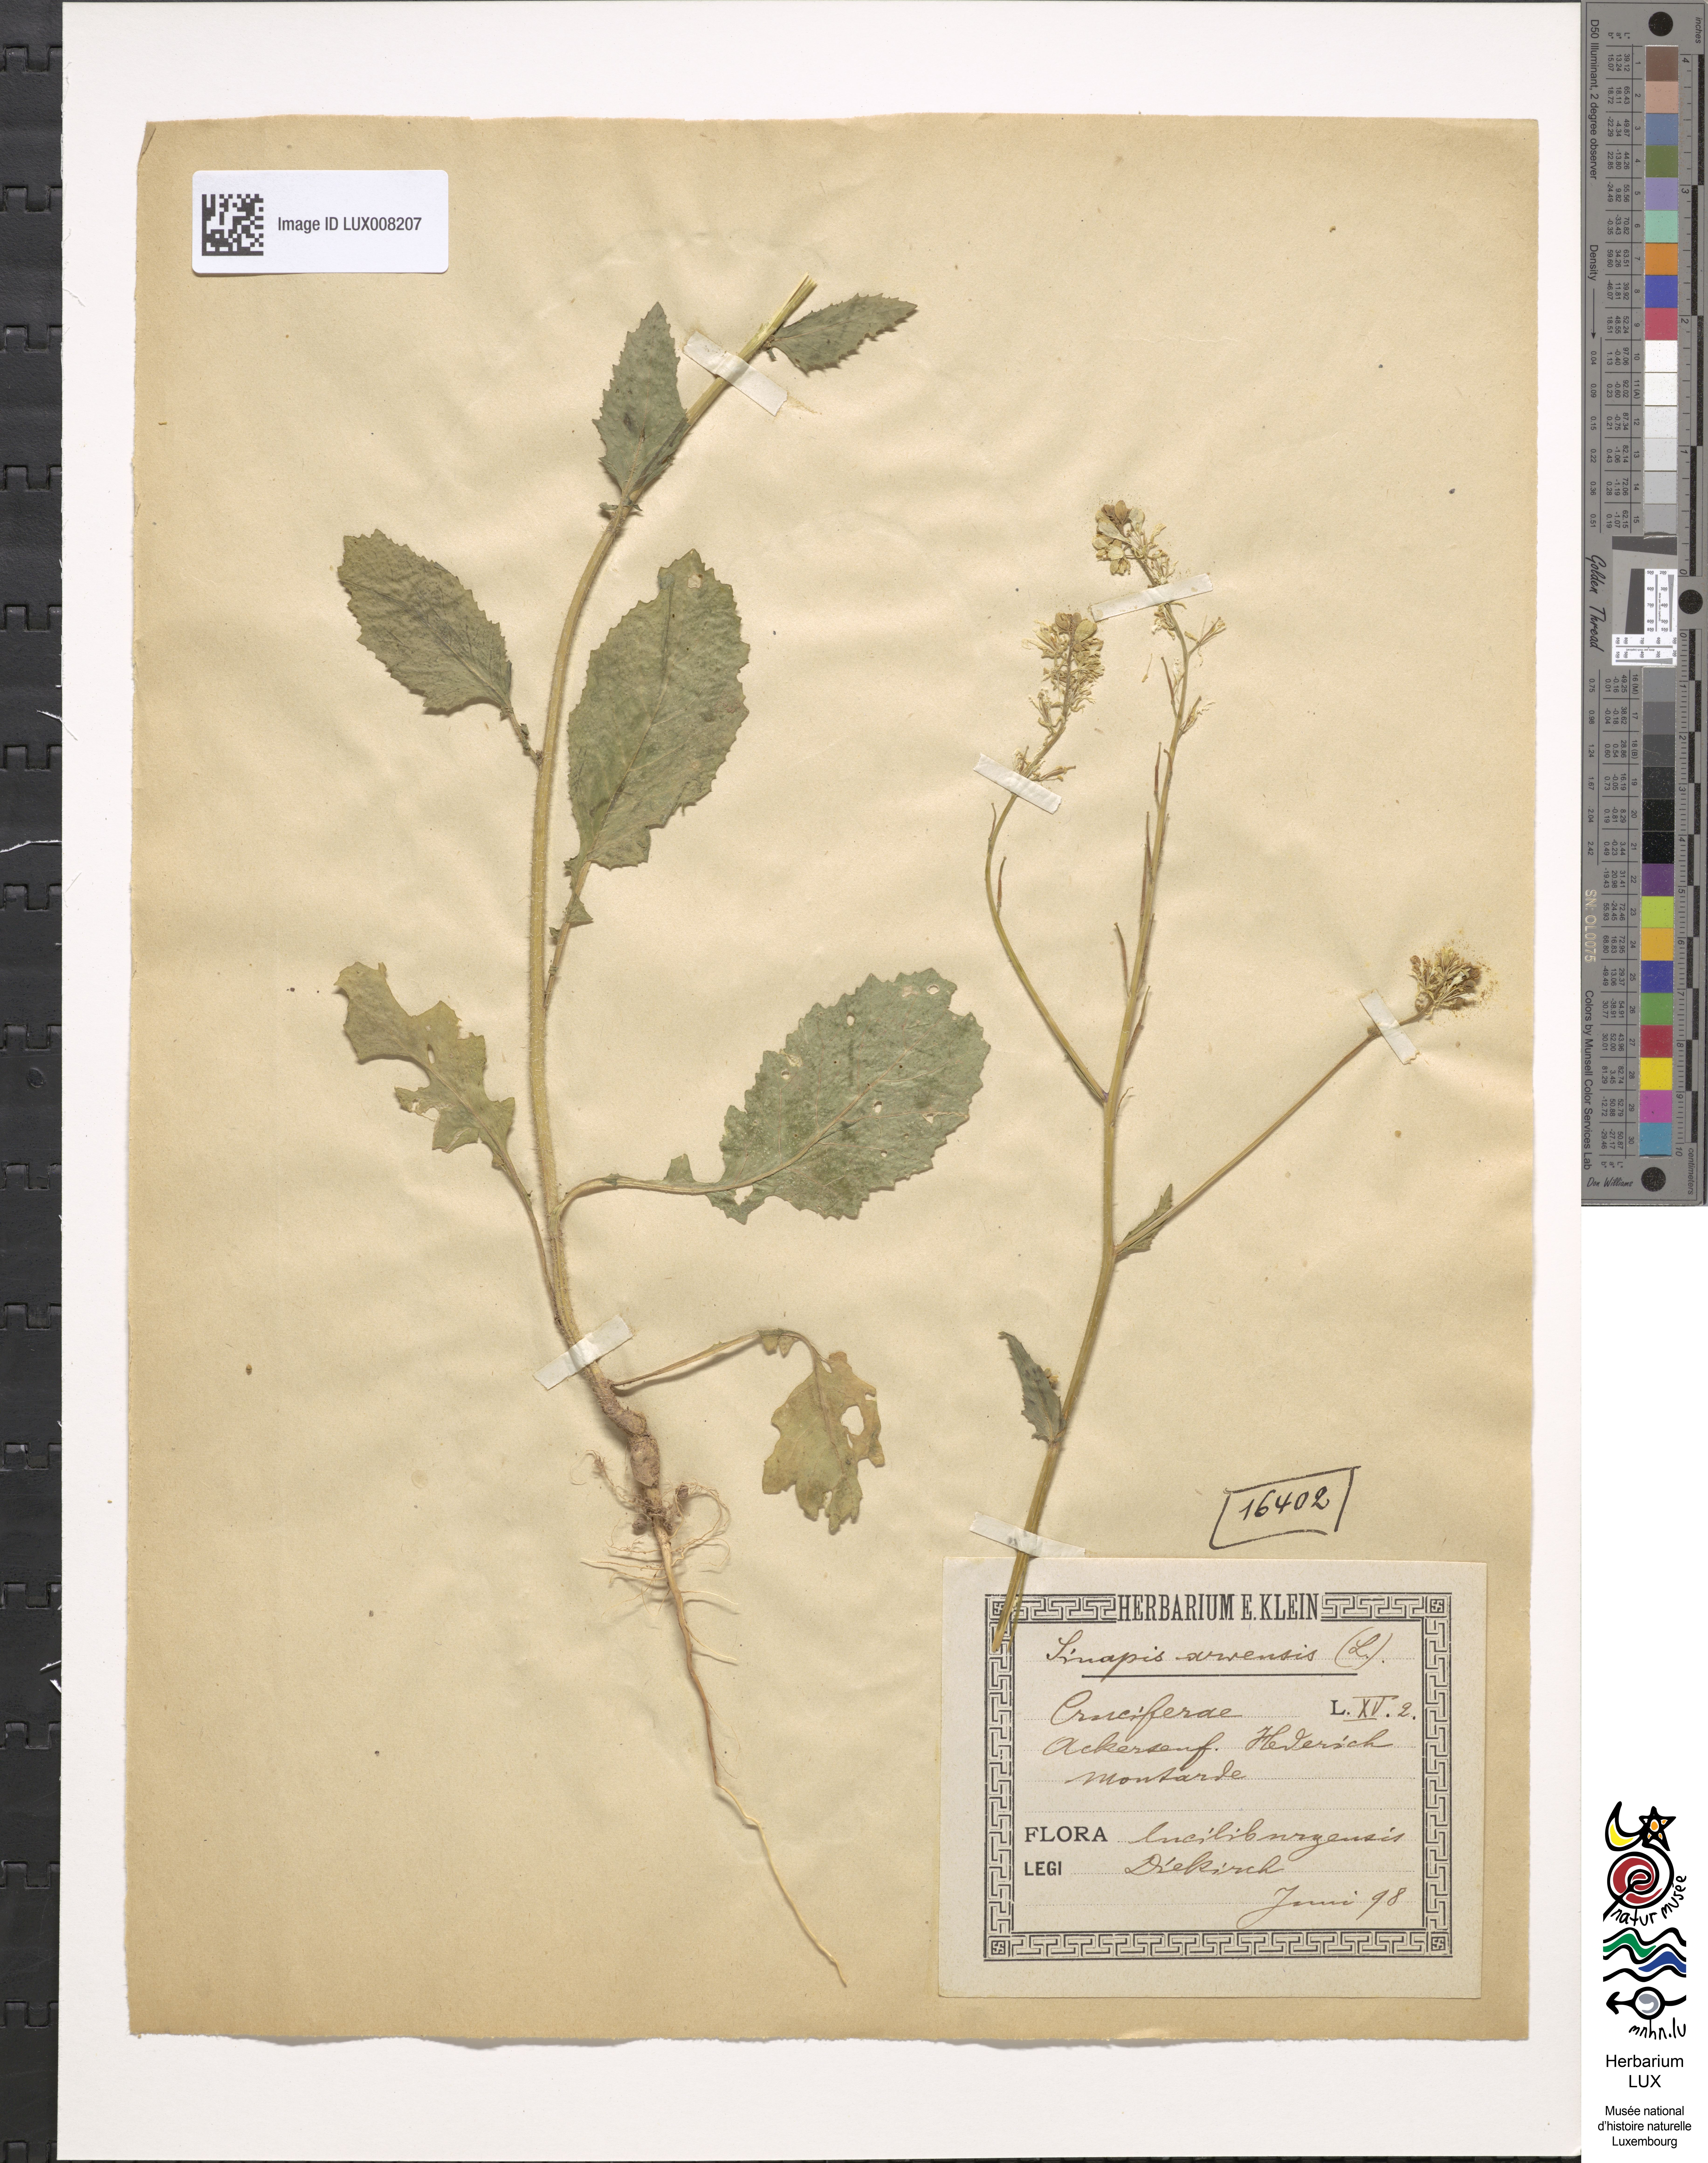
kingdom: Plantae
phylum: Tracheophyta
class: Magnoliopsida
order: Brassicales
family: Brassicaceae
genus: Sinapis
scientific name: Sinapis arvensis
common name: Charlock
